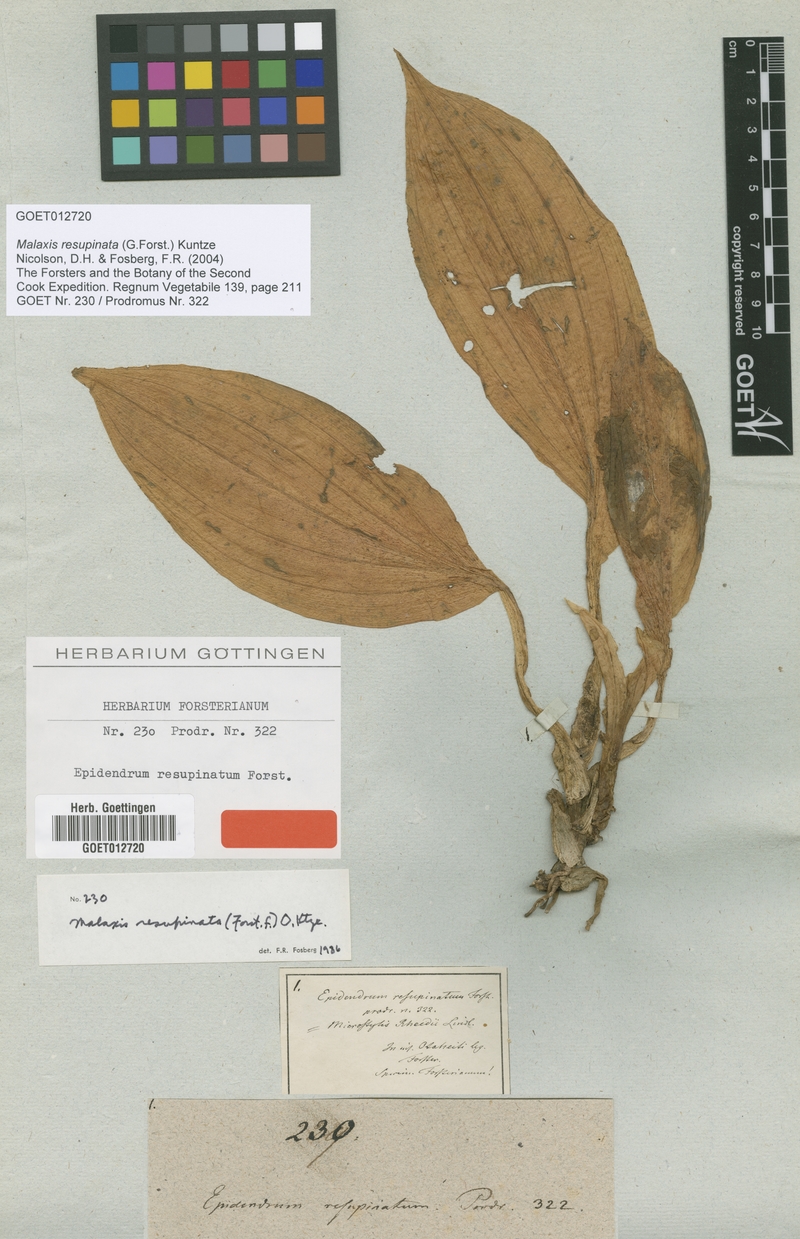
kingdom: Plantae
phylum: Tracheophyta
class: Liliopsida
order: Asparagales
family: Orchidaceae
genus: Crepidium
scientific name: Crepidium resupinatum
